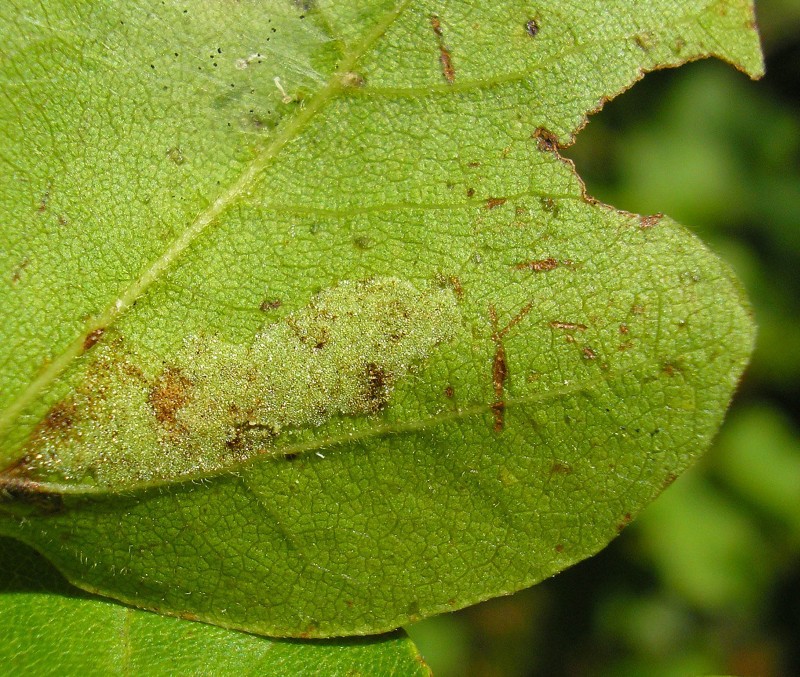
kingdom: Animalia
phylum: Arthropoda
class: Arachnida
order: Trombidiformes
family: Eriophyidae
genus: Aceria
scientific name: Aceria macrocheluserinea
